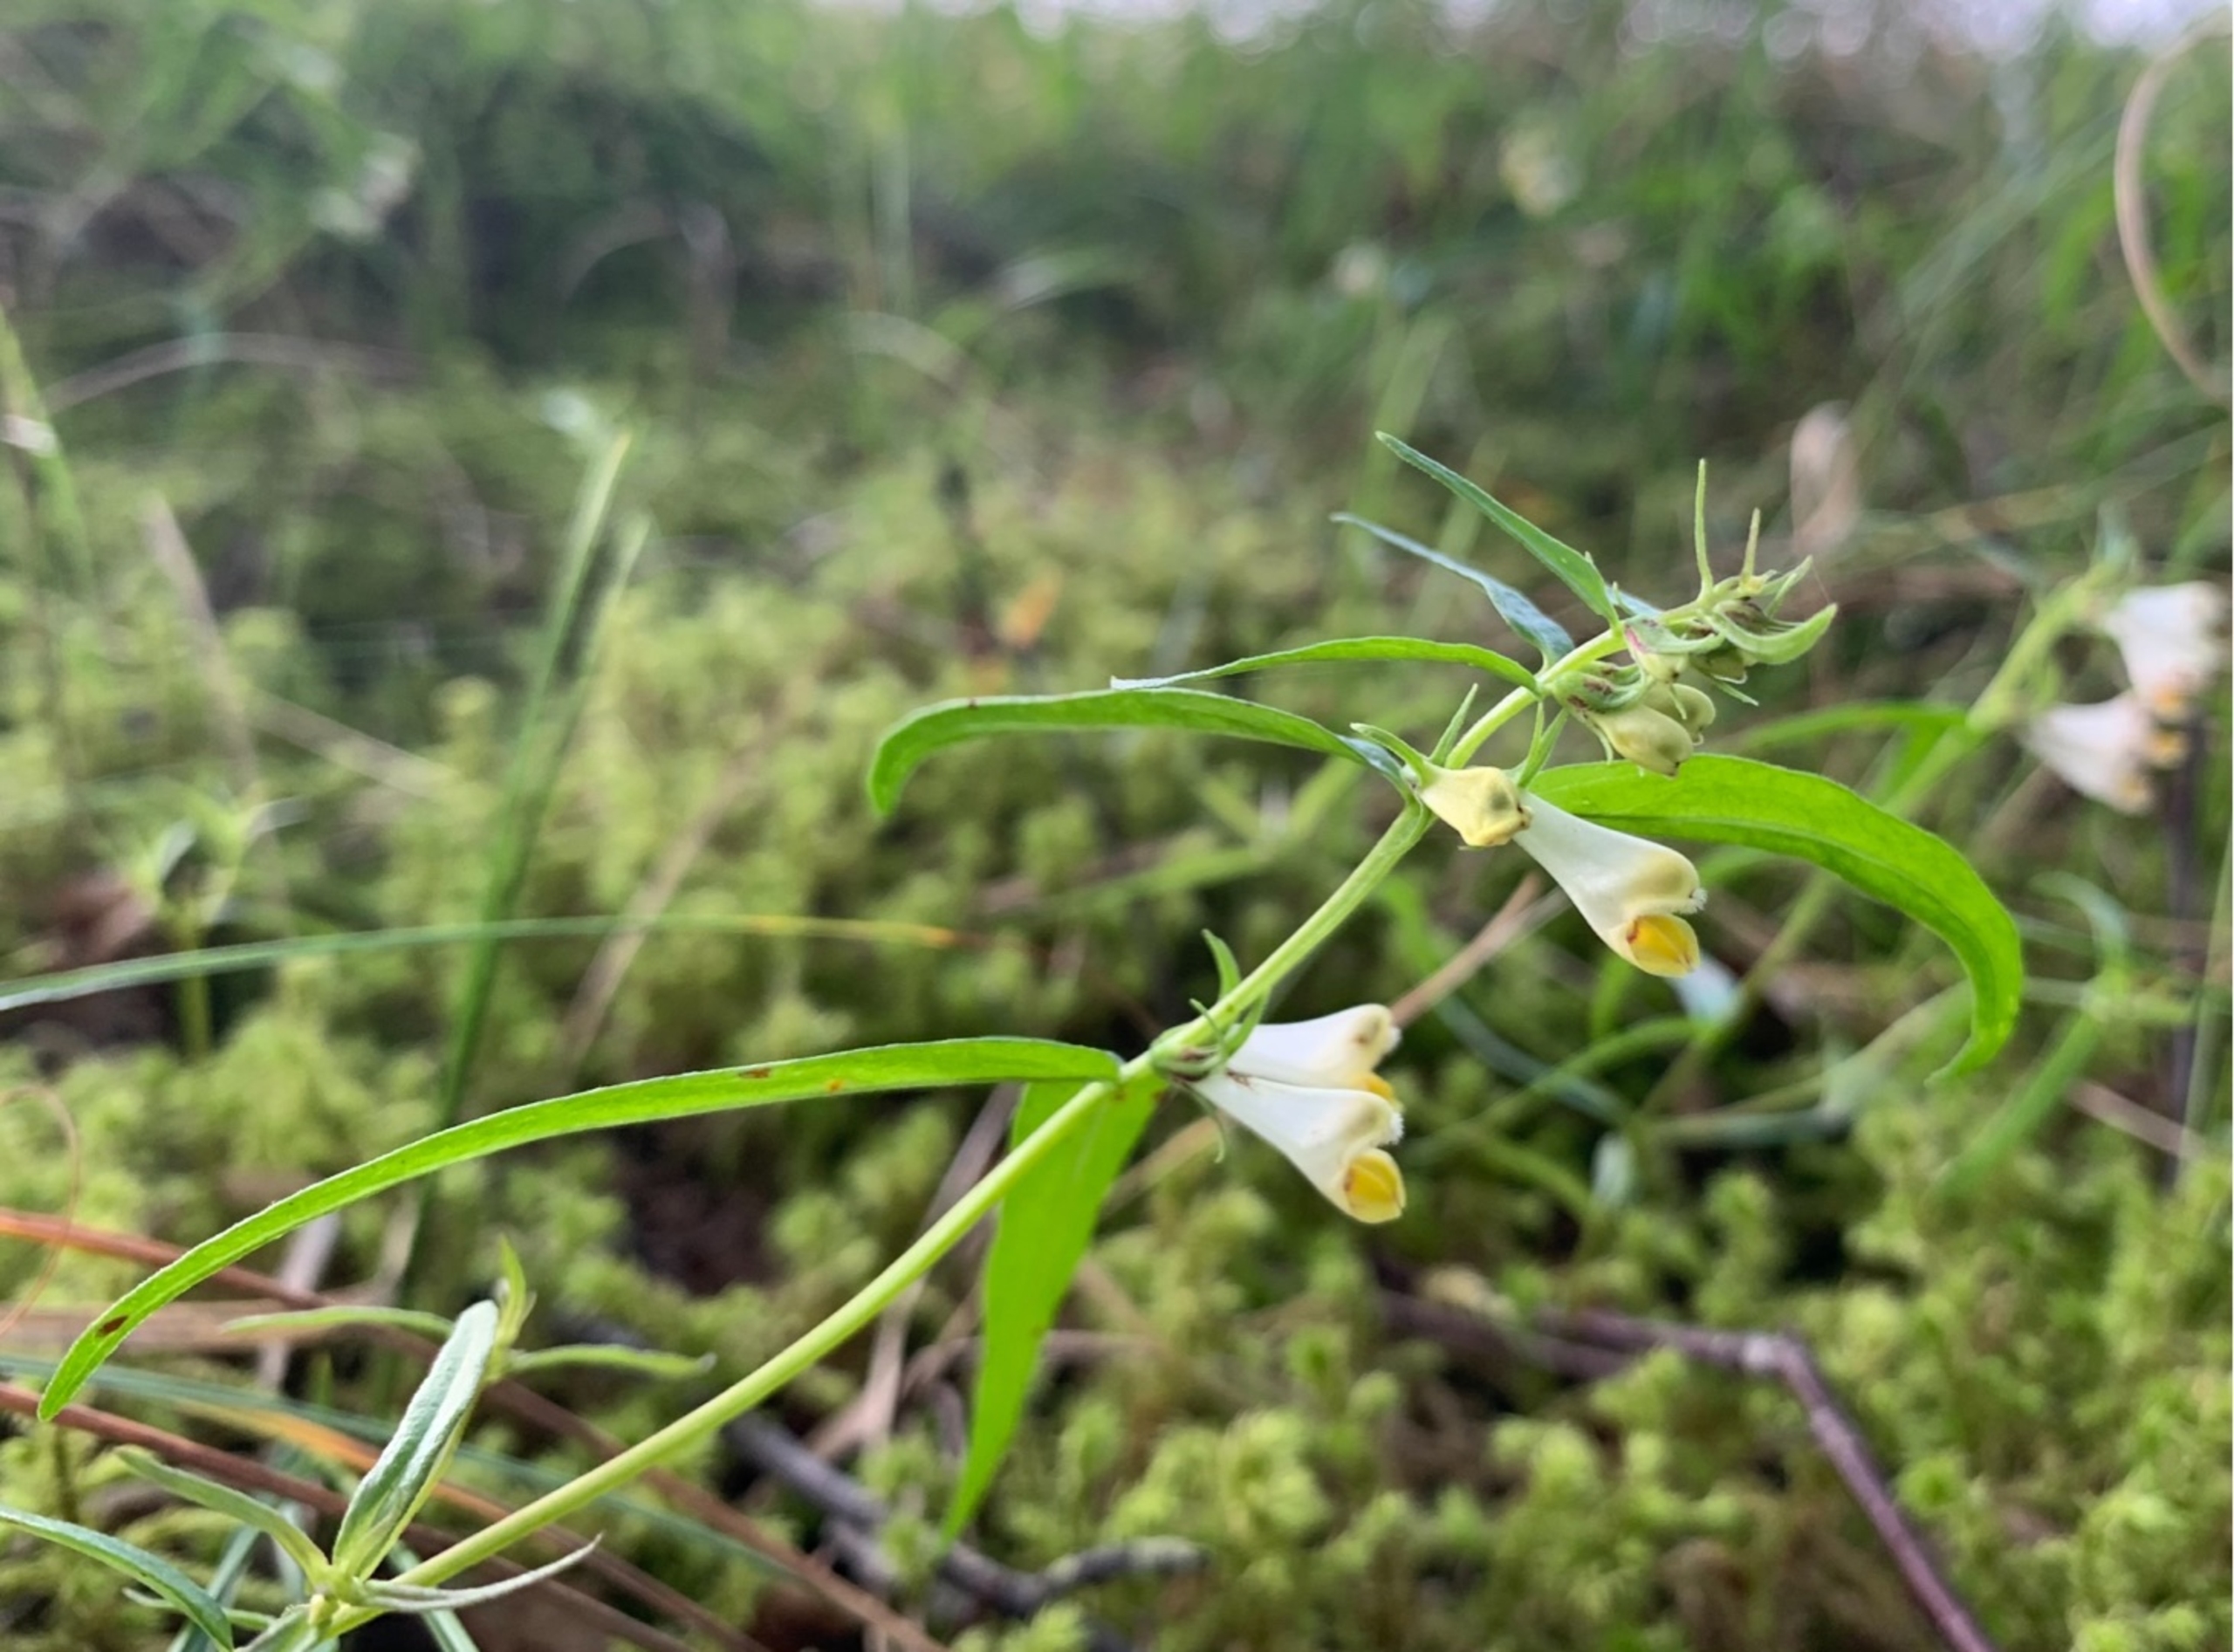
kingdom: Plantae
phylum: Tracheophyta
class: Magnoliopsida
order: Lamiales
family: Orobanchaceae
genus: Melampyrum
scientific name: Melampyrum pratense
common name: Almindelig kohvede
